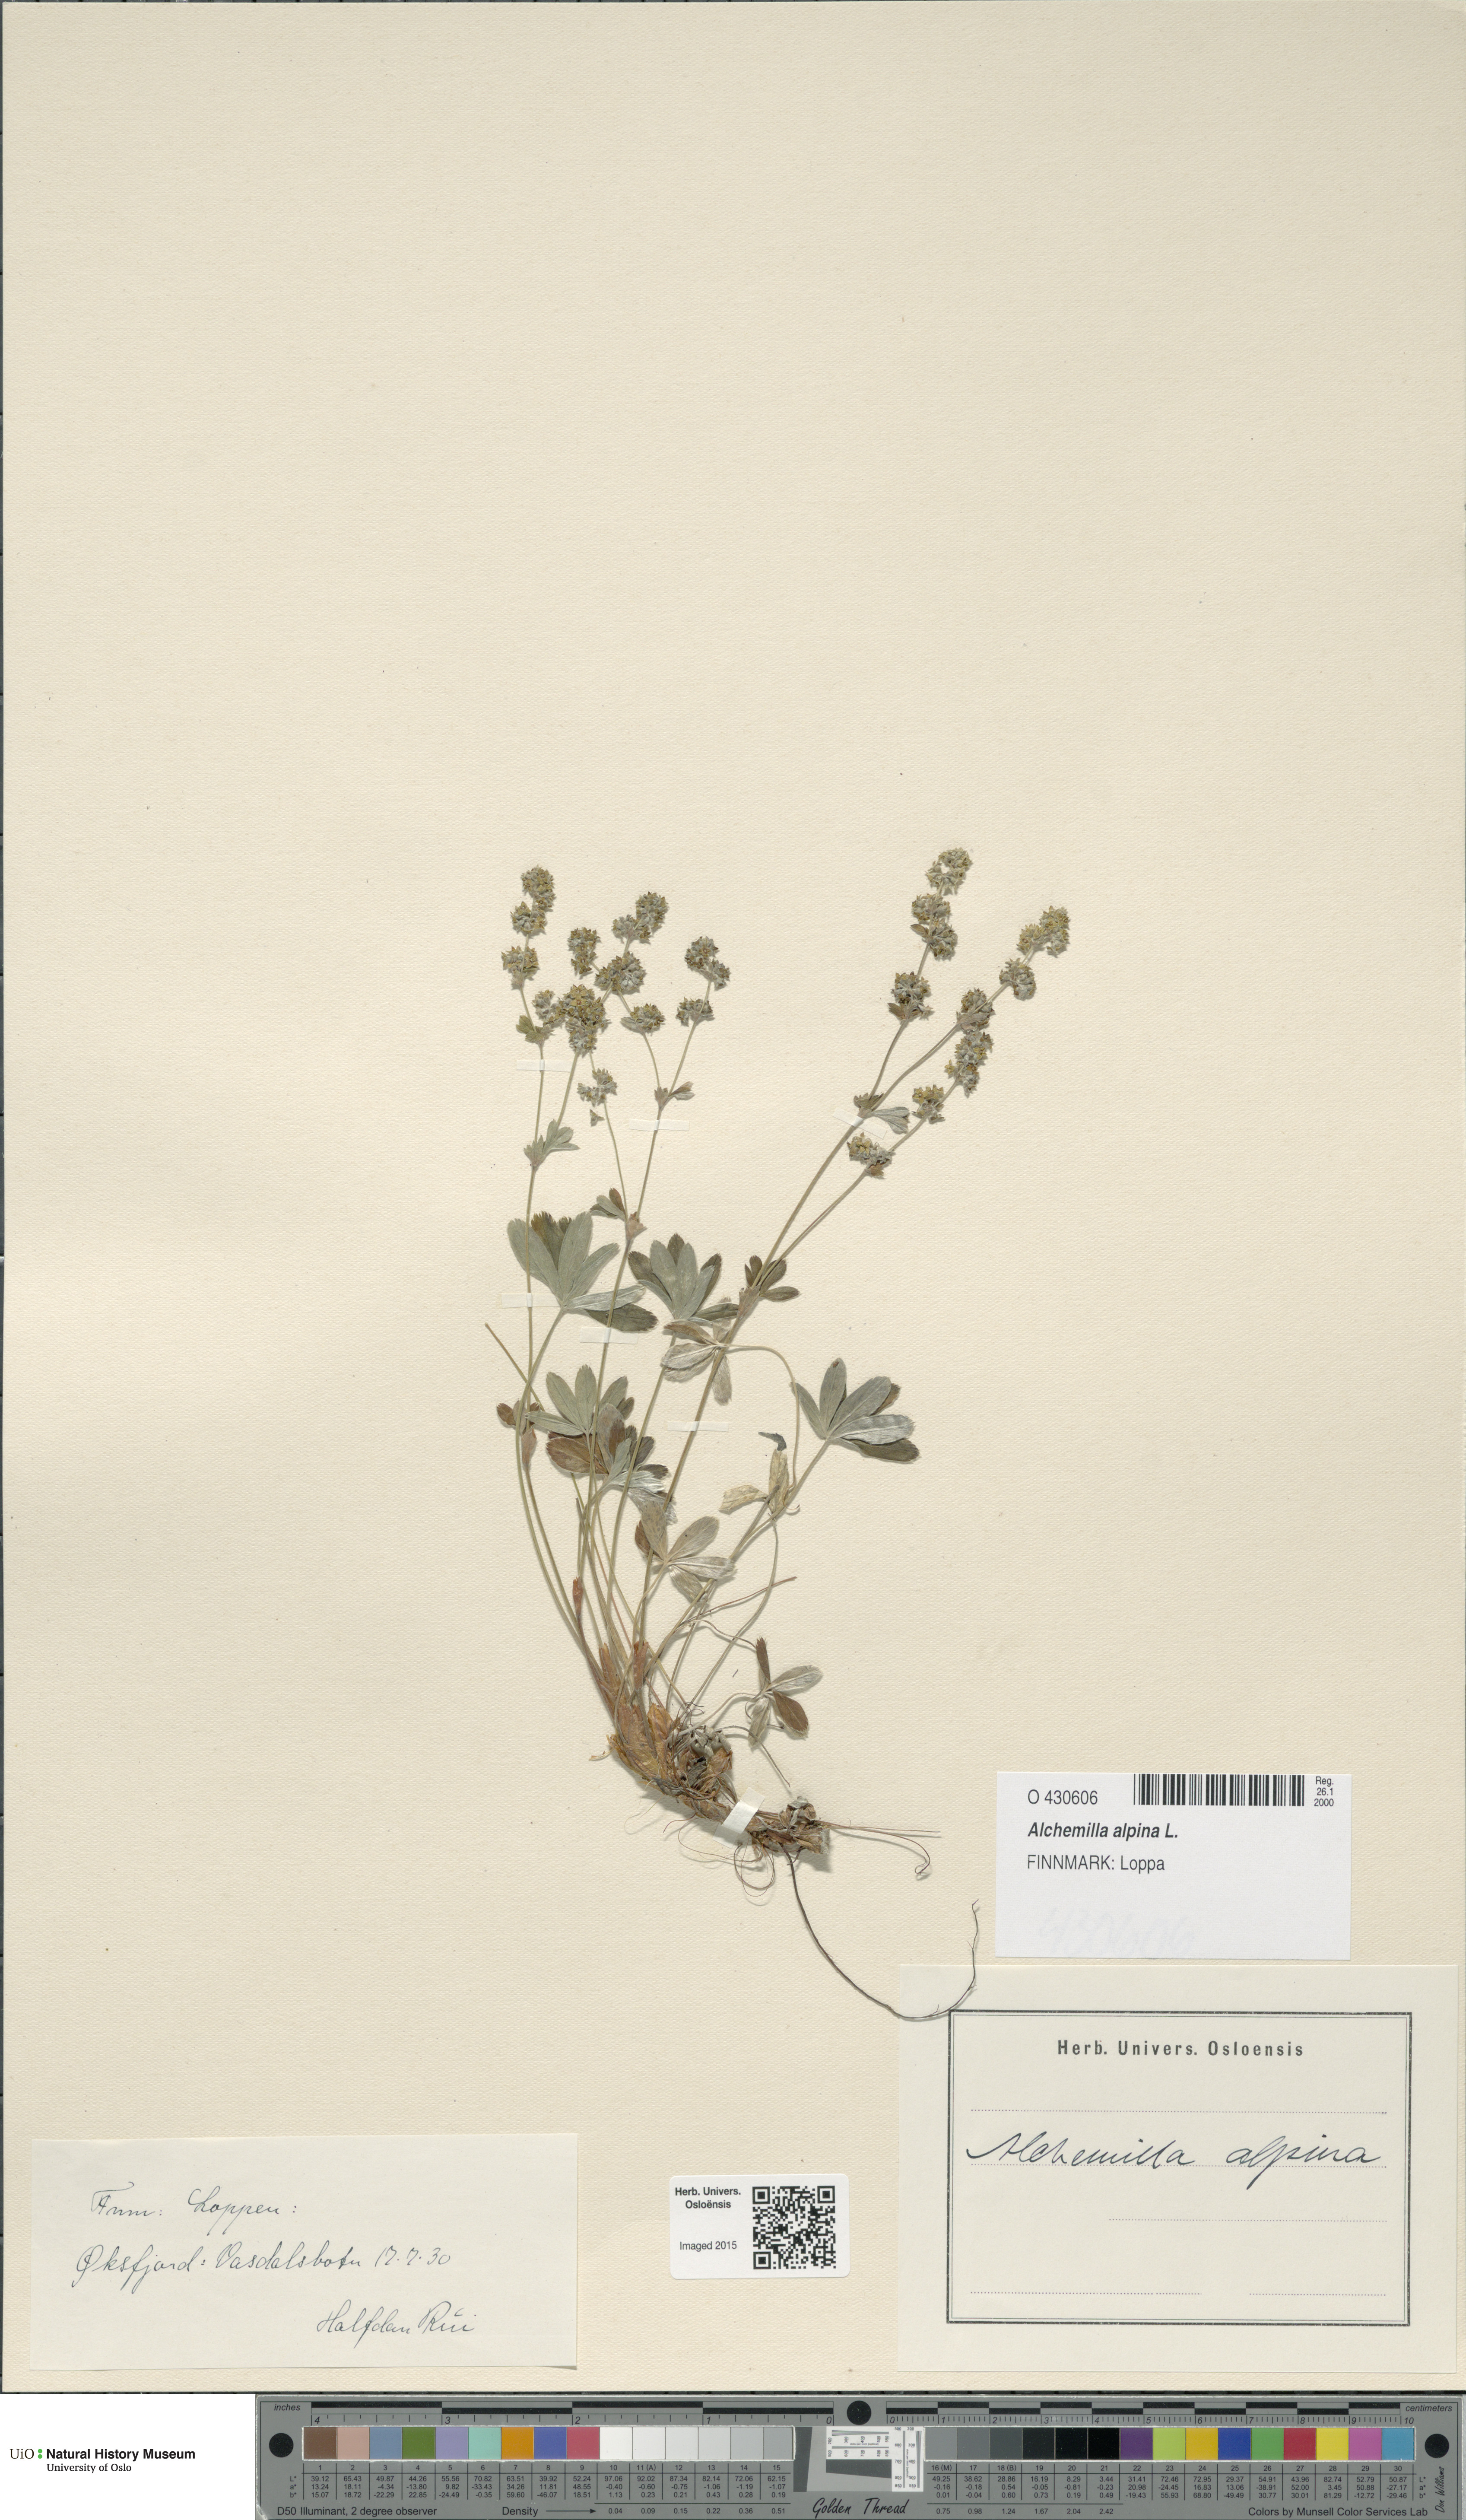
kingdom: Plantae
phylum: Tracheophyta
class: Magnoliopsida
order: Rosales
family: Rosaceae
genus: Alchemilla
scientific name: Alchemilla alpina
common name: Alpine lady's-mantle
